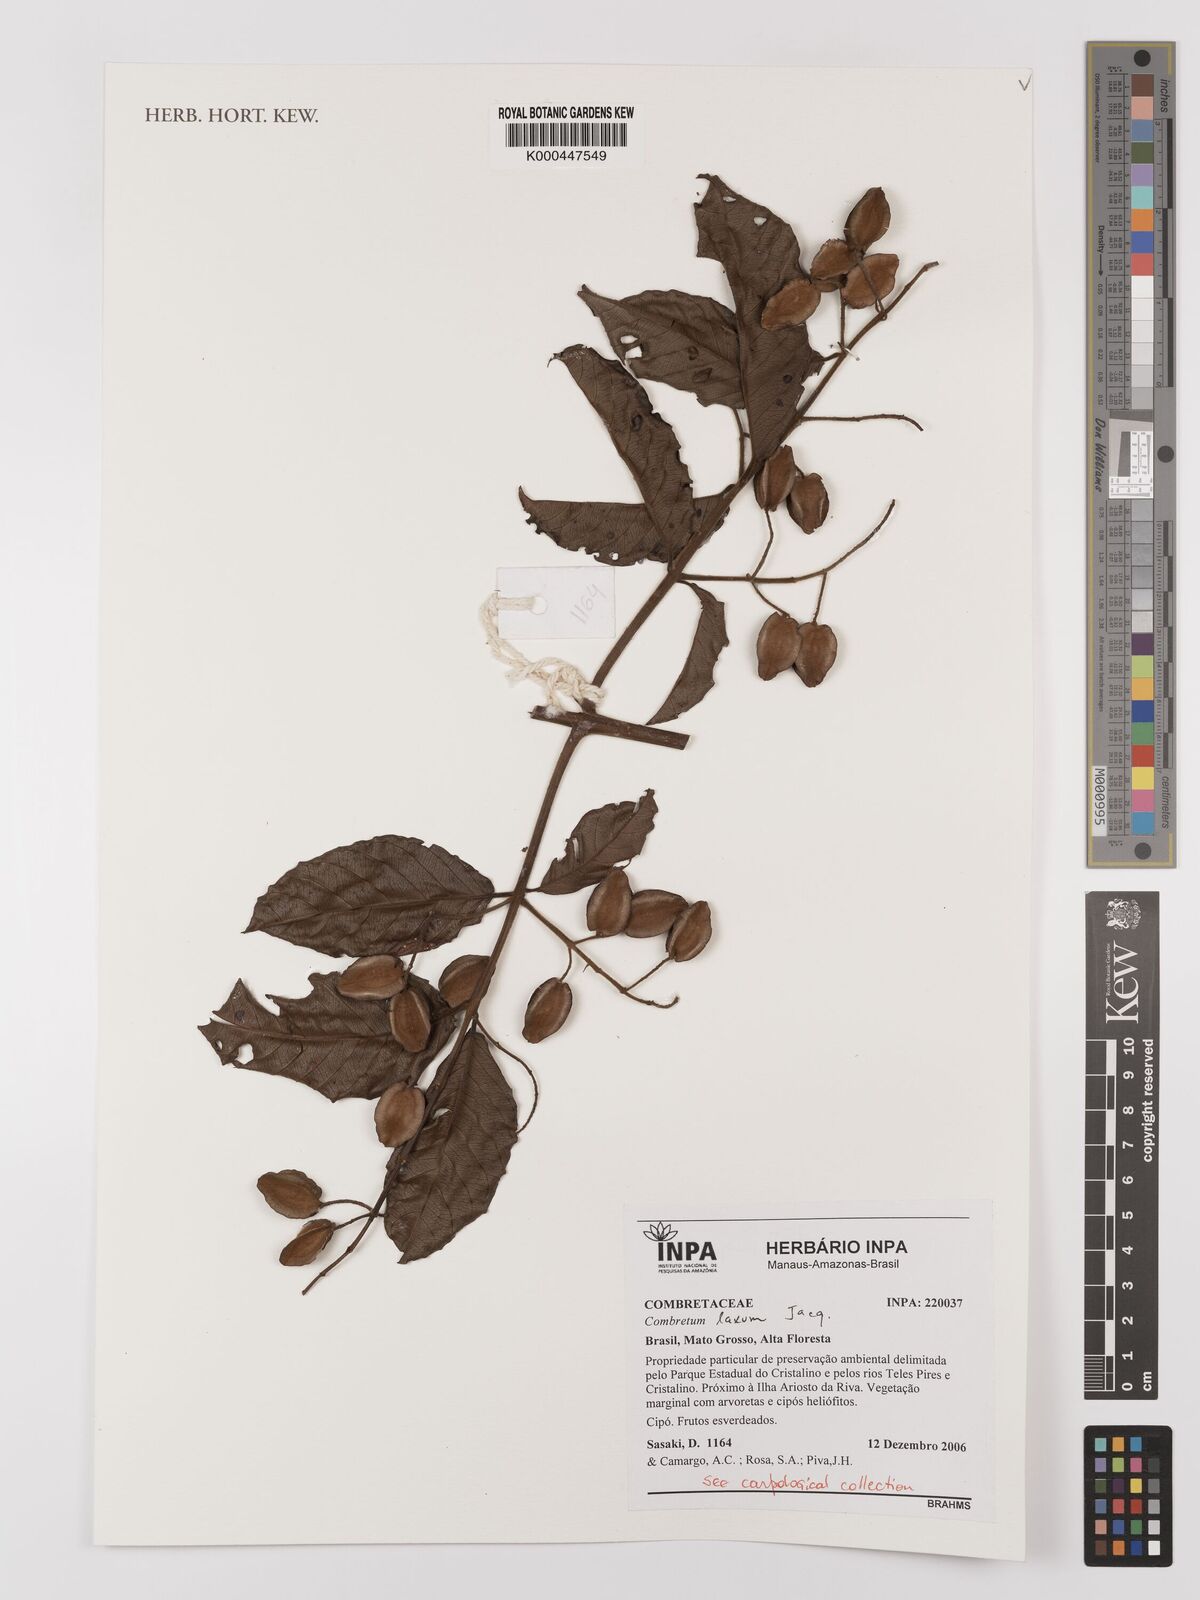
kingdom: Plantae
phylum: Tracheophyta
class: Magnoliopsida
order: Myrtales
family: Combretaceae
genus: Combretum
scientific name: Combretum laxum
